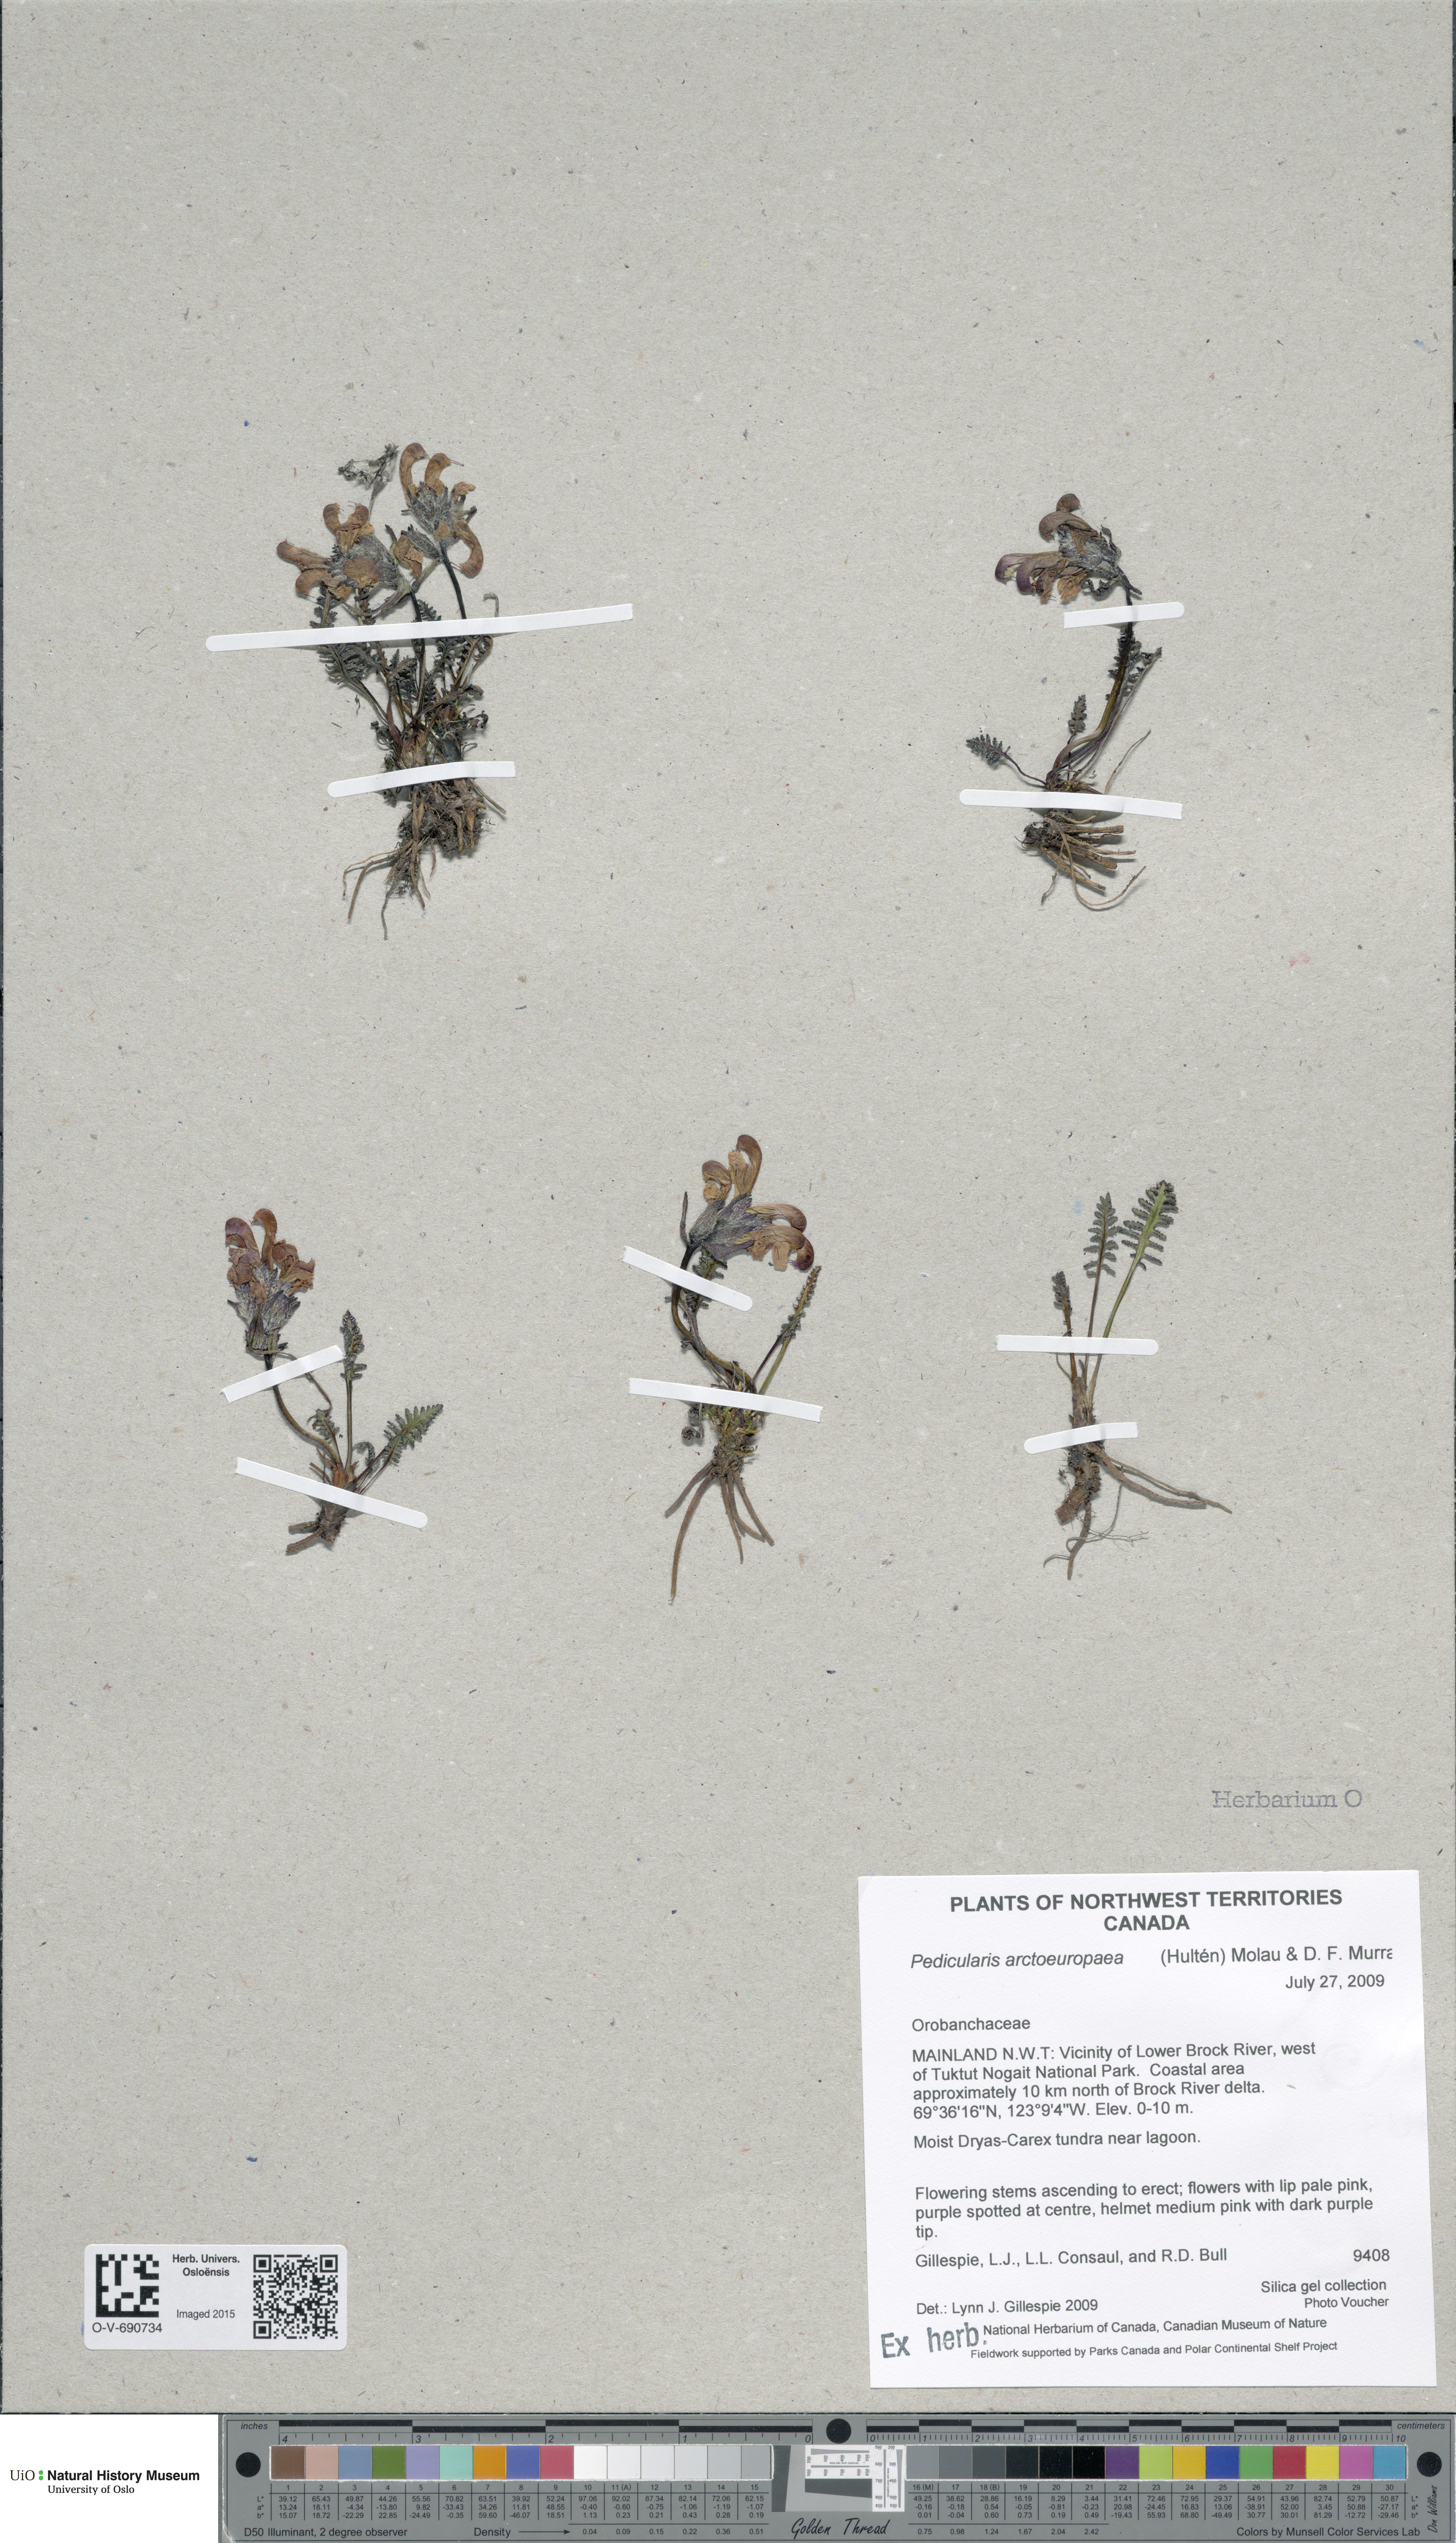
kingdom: Plantae
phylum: Tracheophyta
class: Magnoliopsida
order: Lamiales
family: Orobanchaceae
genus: Pedicularis
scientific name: Pedicularis arctoeuropaea
